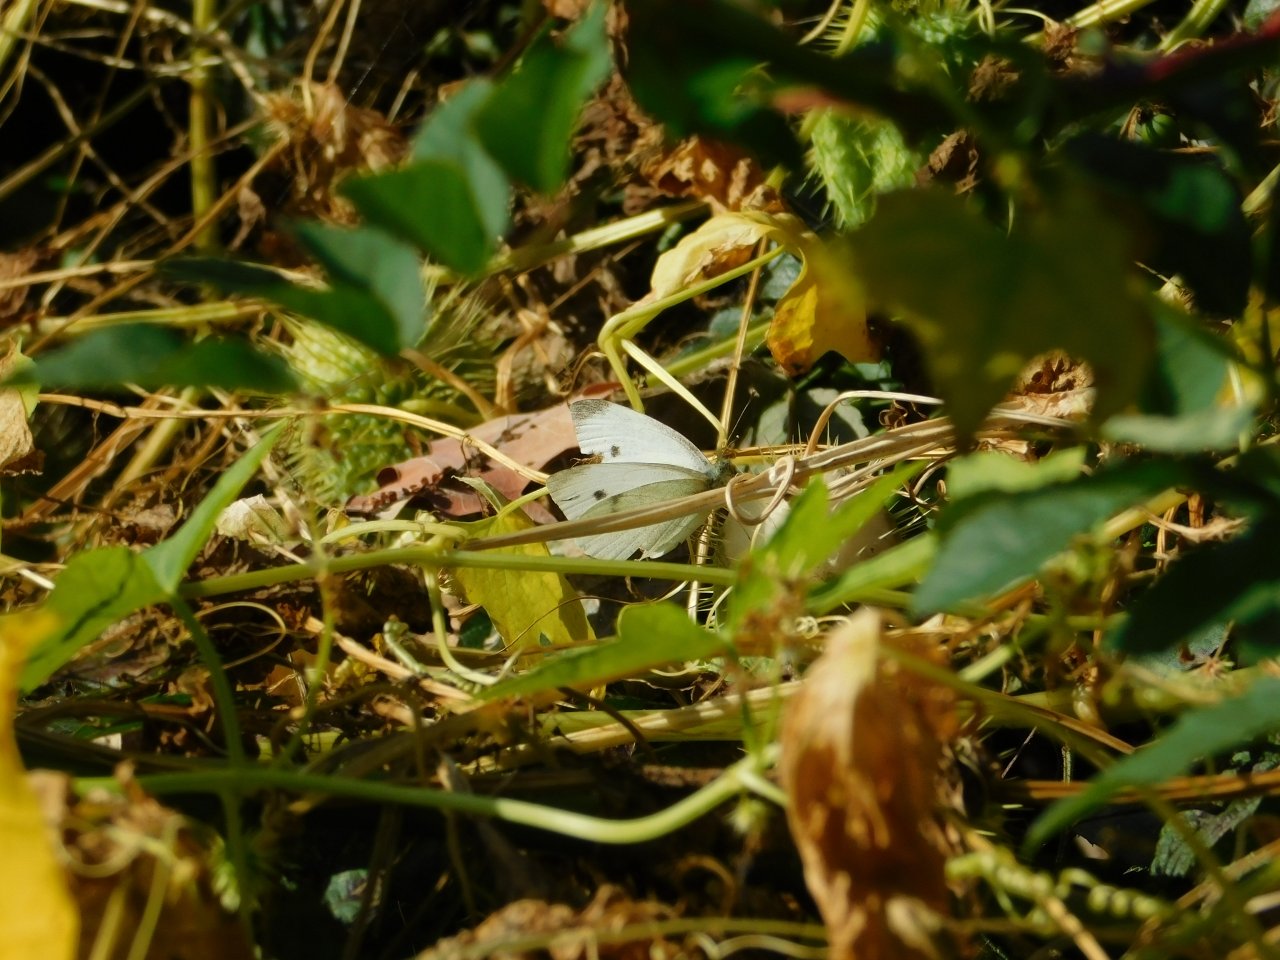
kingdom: Animalia
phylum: Arthropoda
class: Insecta
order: Lepidoptera
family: Pieridae
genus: Pieris
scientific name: Pieris rapae
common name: Cabbage White
